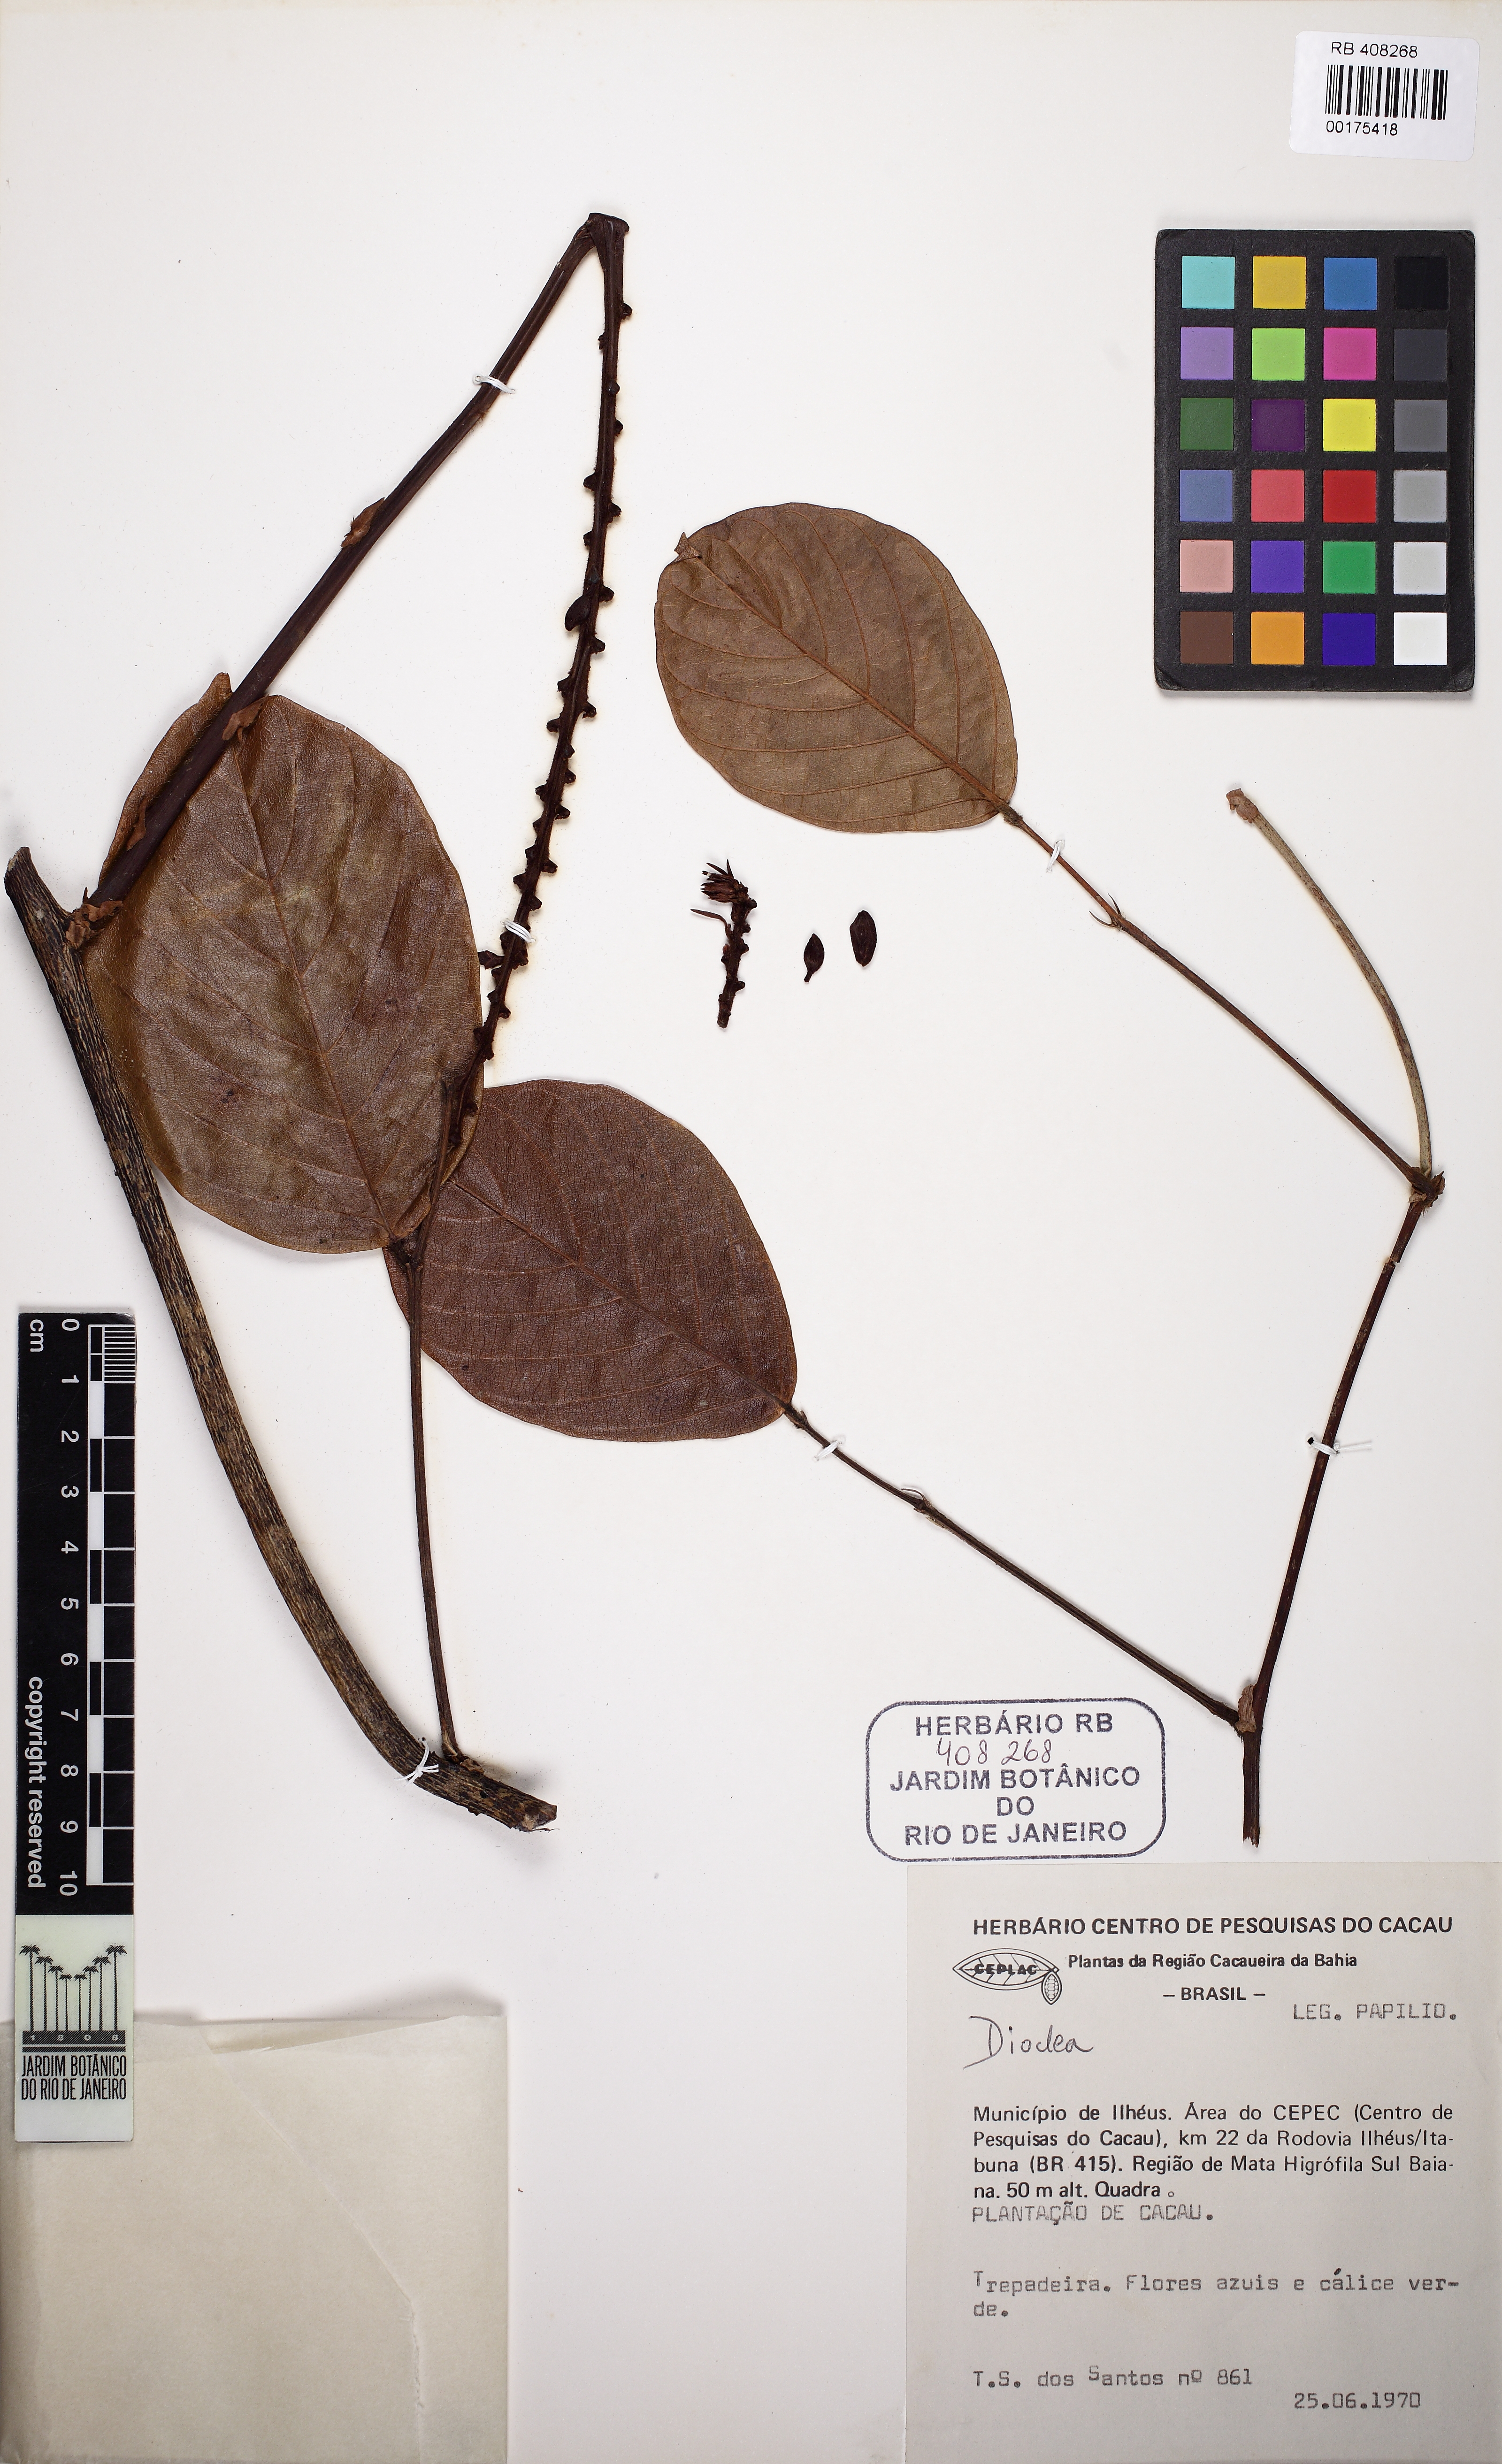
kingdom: Plantae
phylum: Tracheophyta
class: Magnoliopsida
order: Fabales
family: Fabaceae
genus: Macropsychanthus
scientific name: Macropsychanthus wilsonii
